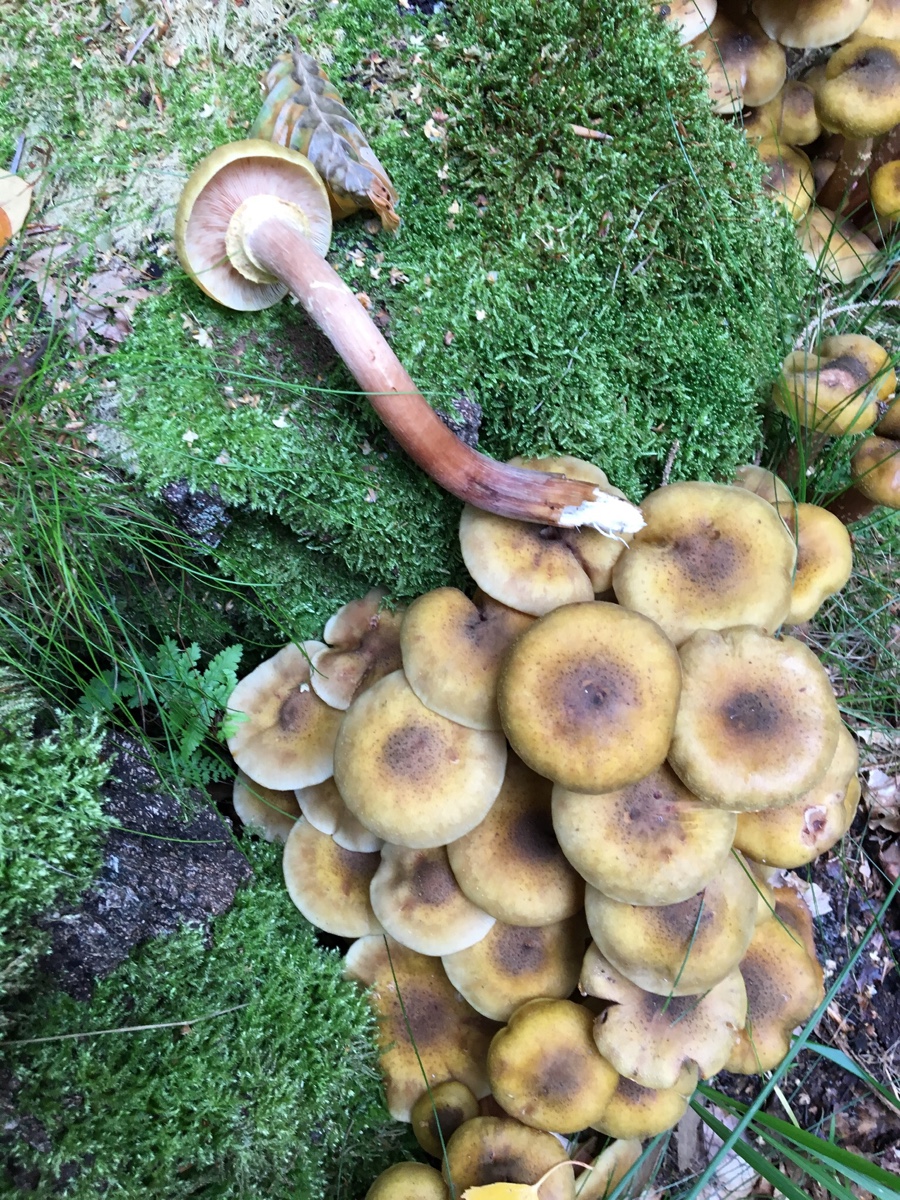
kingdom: Fungi
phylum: Basidiomycota
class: Agaricomycetes
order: Agaricales
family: Physalacriaceae
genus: Armillaria
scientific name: Armillaria mellea
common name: ægte honningsvamp
